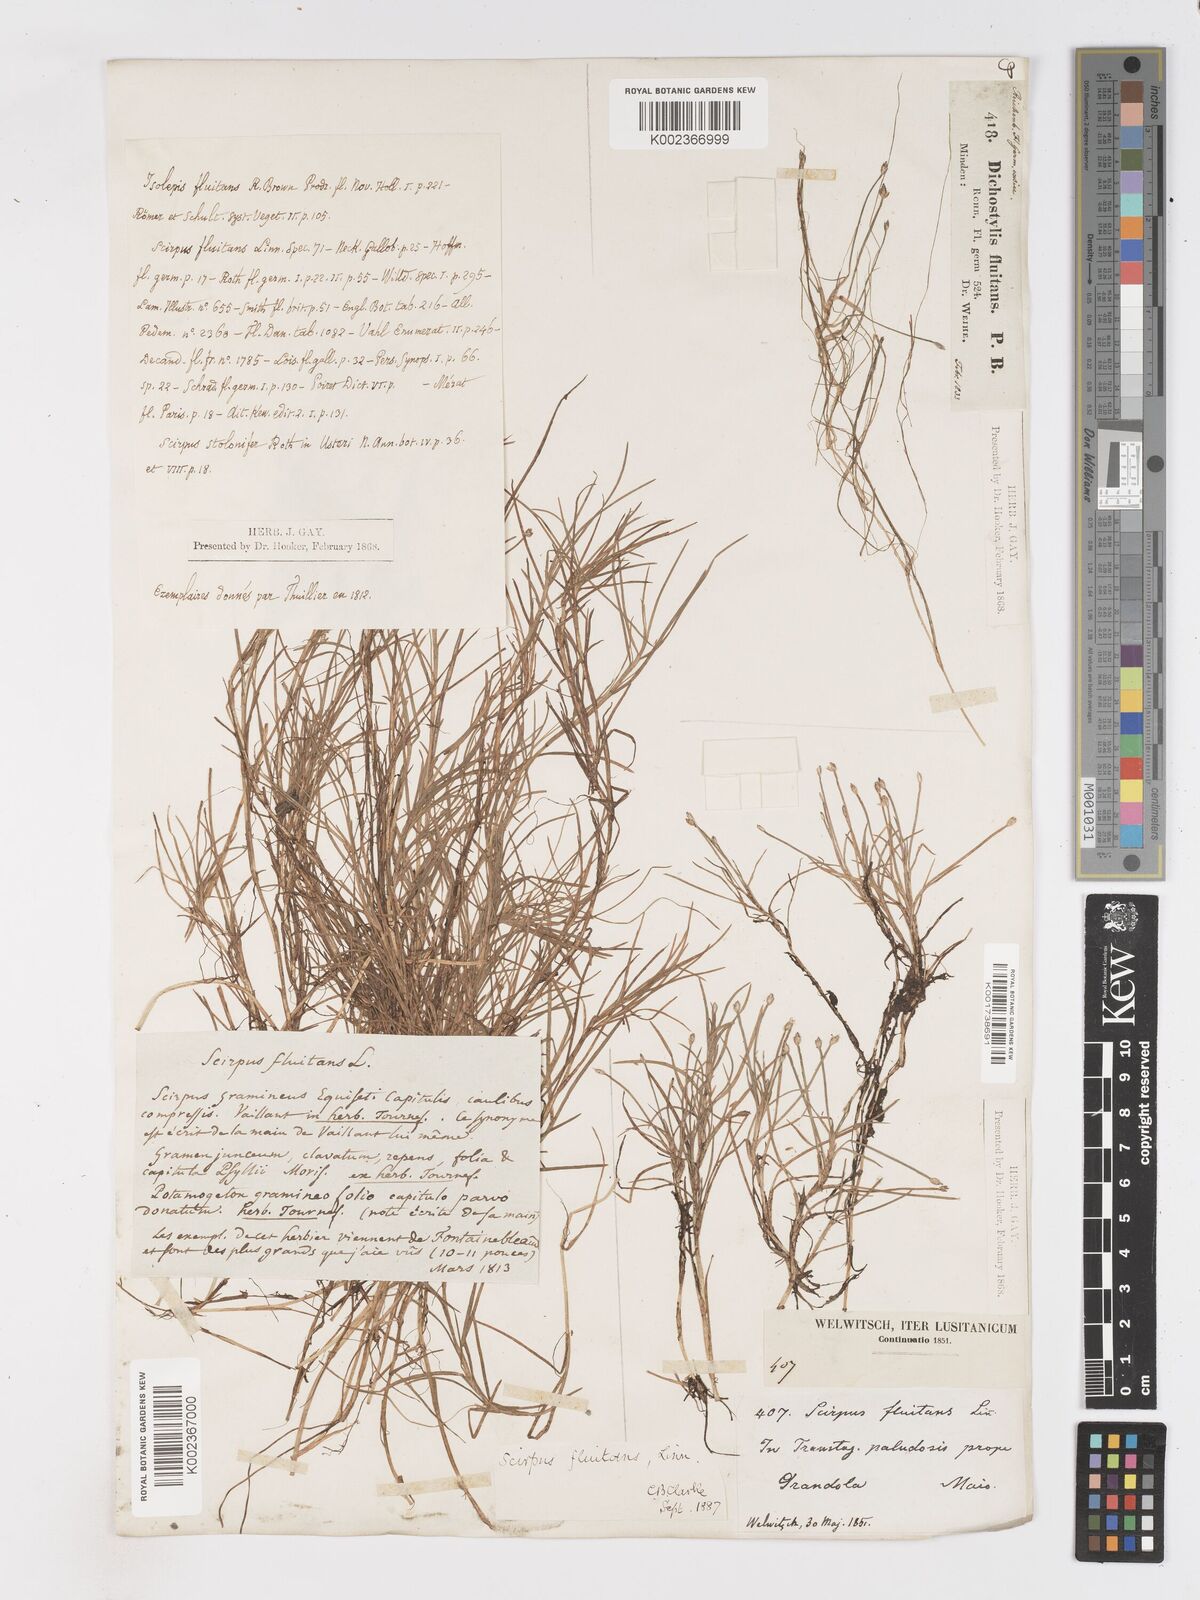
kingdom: Plantae
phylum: Tracheophyta
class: Liliopsida
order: Poales
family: Cyperaceae
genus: Isolepis
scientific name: Isolepis fluitans
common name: Floating club-rush
